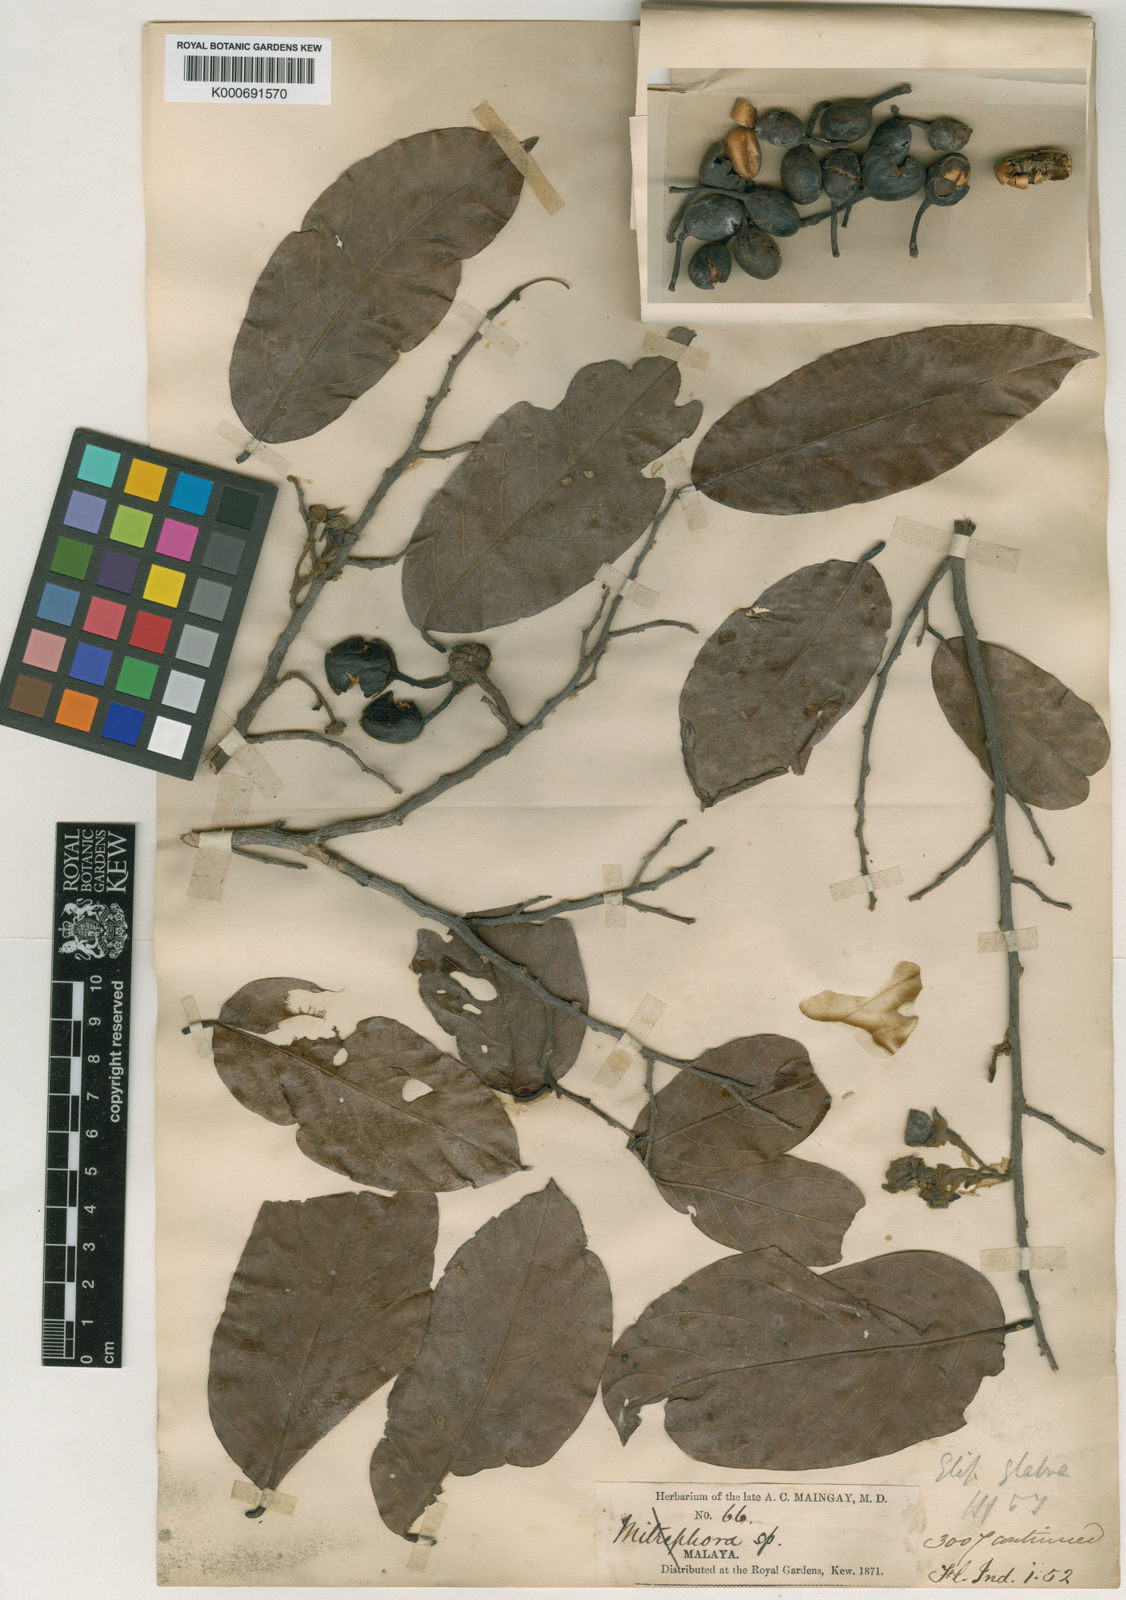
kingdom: Plantae
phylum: Tracheophyta
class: Magnoliopsida
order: Magnoliales
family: Annonaceae
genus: Polyalthia
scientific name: Polyalthia glabra
